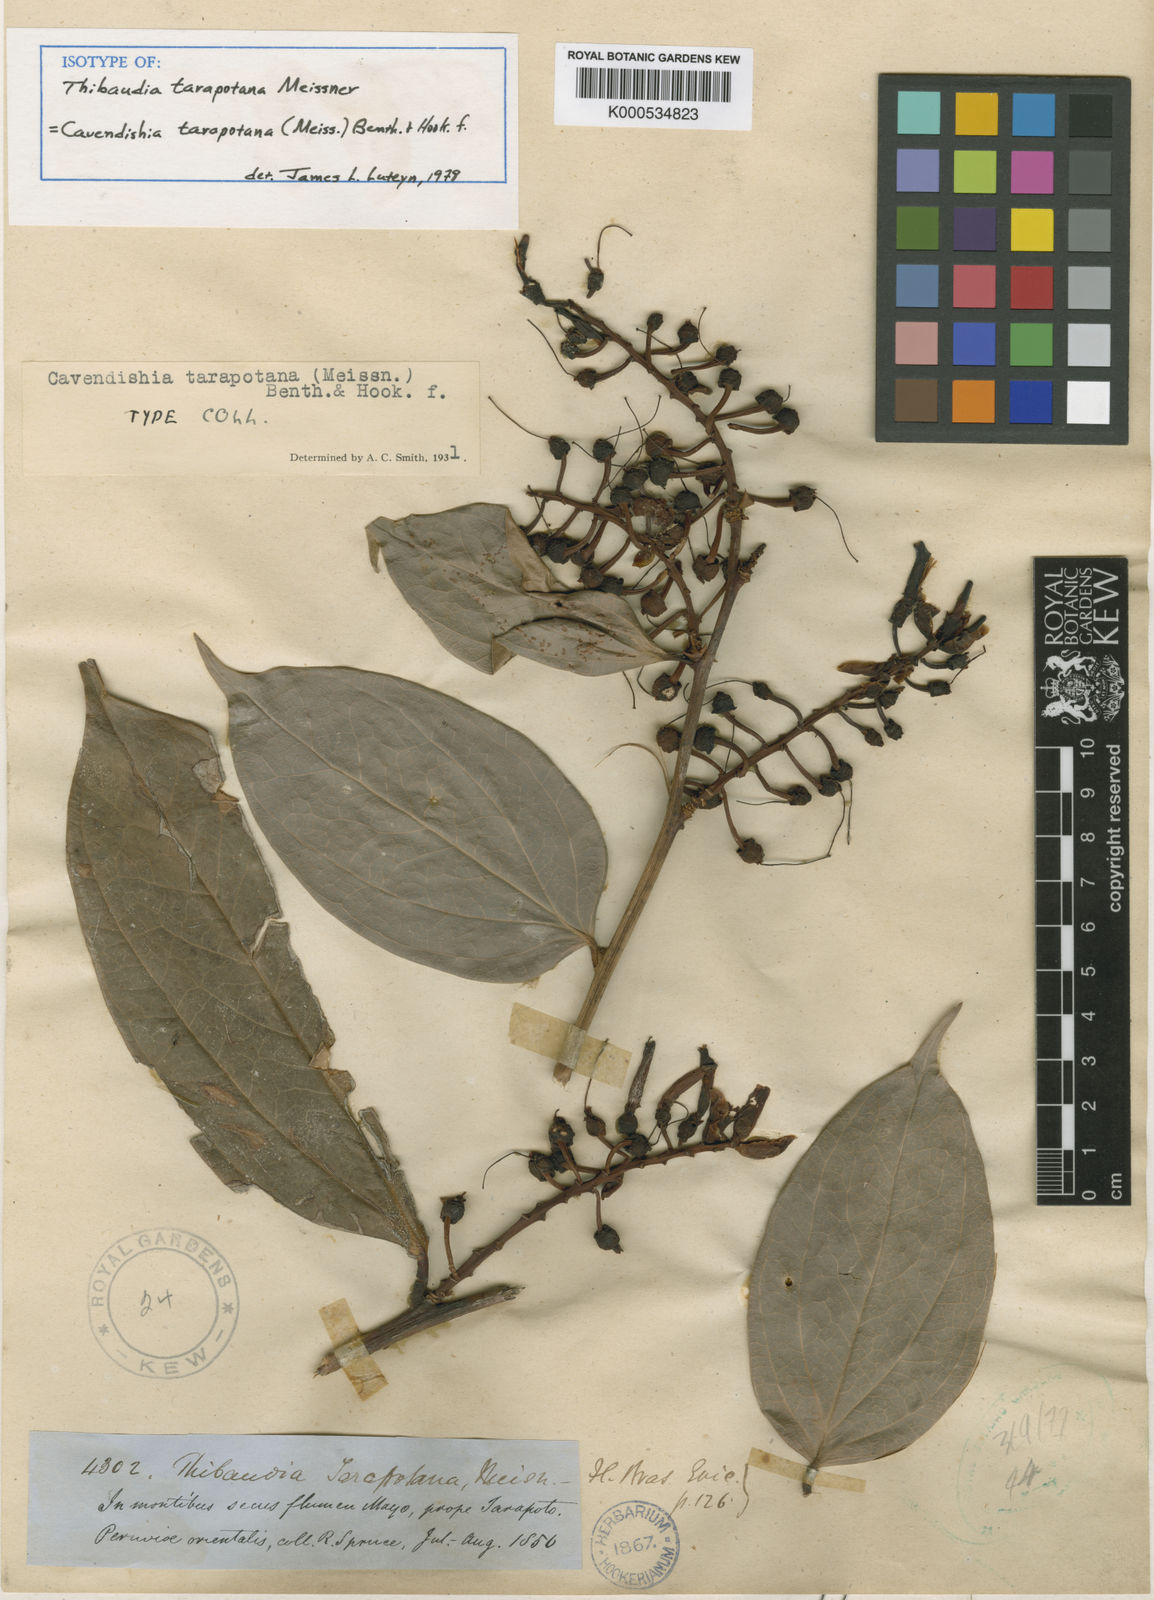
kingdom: Plantae
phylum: Tracheophyta
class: Magnoliopsida
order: Ericales
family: Ericaceae
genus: Cavendishia
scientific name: Cavendishia tarapotana
